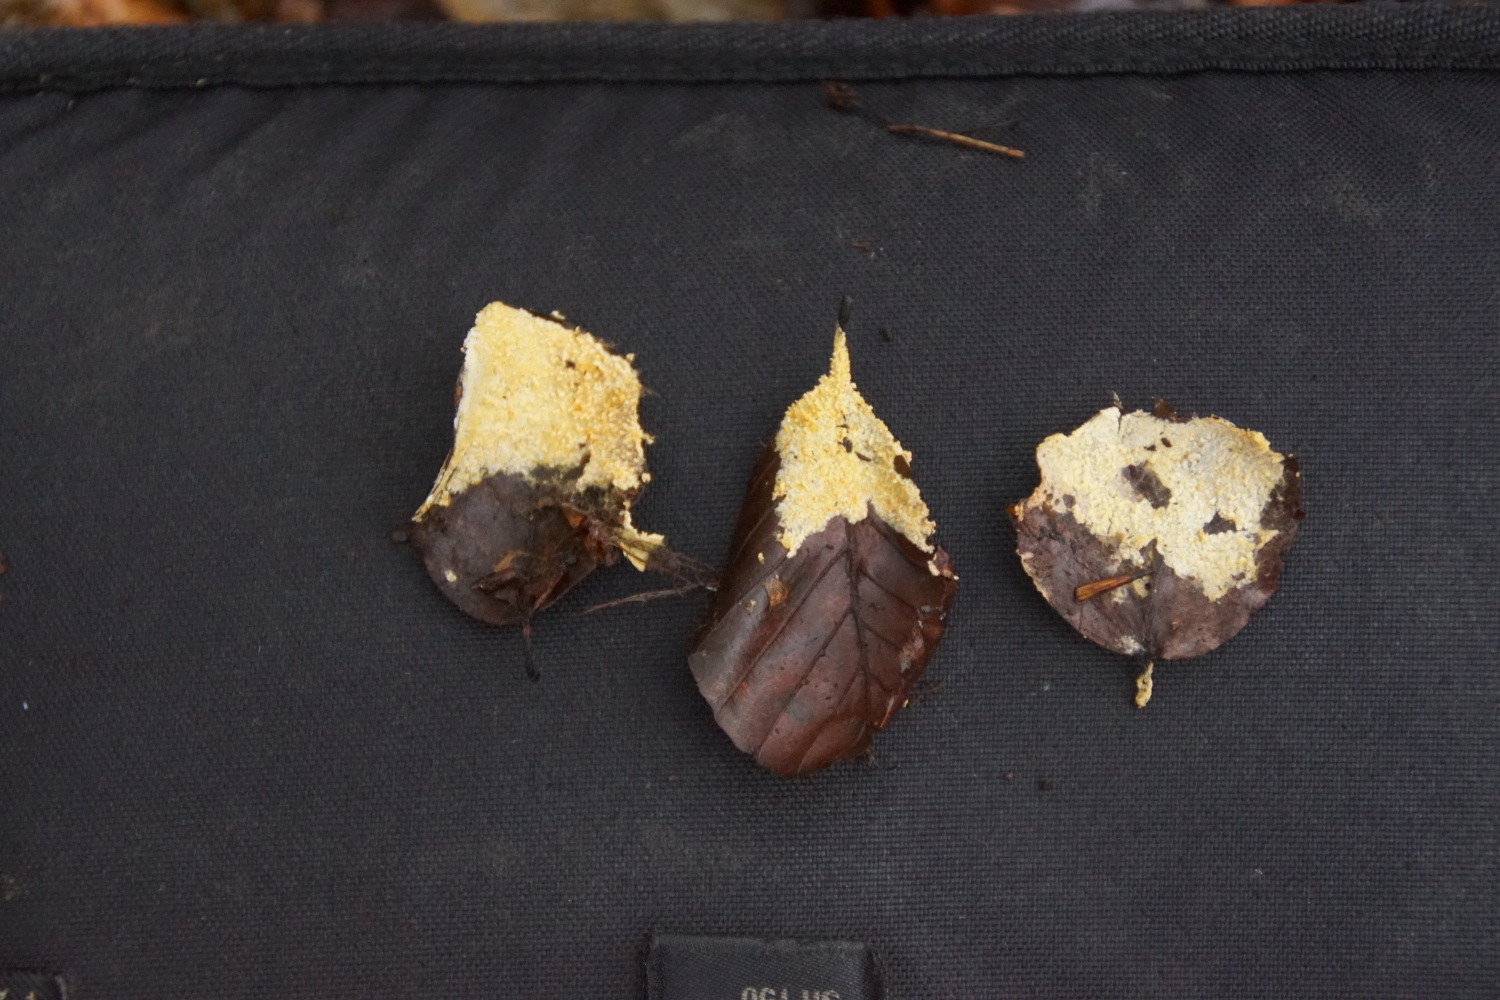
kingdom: Fungi
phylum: Basidiomycota
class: Agaricomycetes
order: Agaricales
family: Stephanosporaceae
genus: Lindtneria
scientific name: Lindtneria panphyliensis
